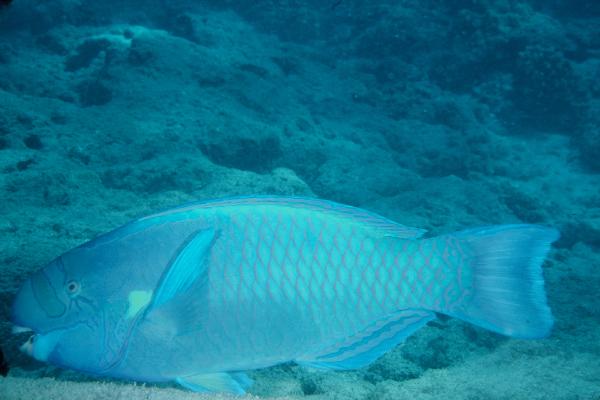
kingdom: Animalia
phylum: Chordata
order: Perciformes
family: Scaridae
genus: Chlorurus
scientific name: Chlorurus perspicillatus
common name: Spectacled parrotfish
